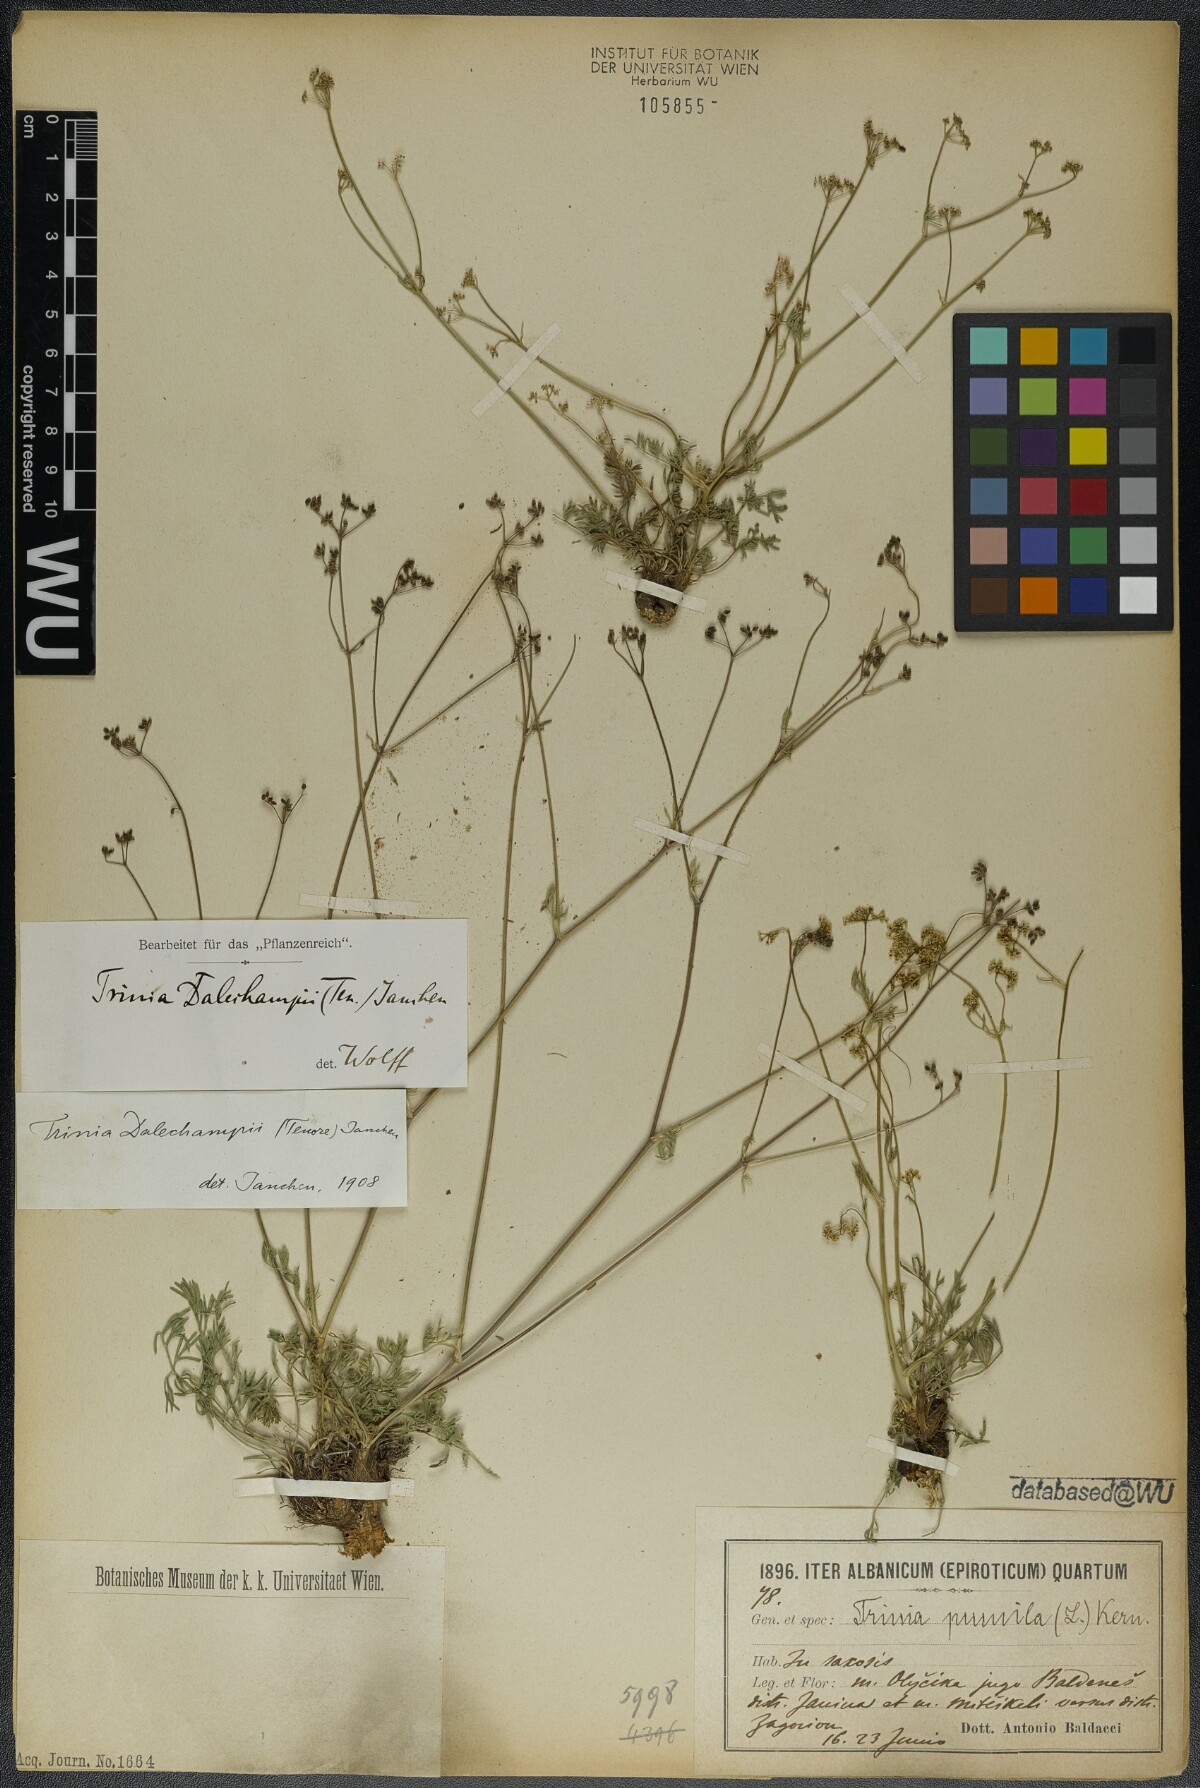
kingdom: Plantae
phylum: Tracheophyta
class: Magnoliopsida
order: Apiales
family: Apiaceae
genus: Trinia
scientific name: Trinia dalechampii
